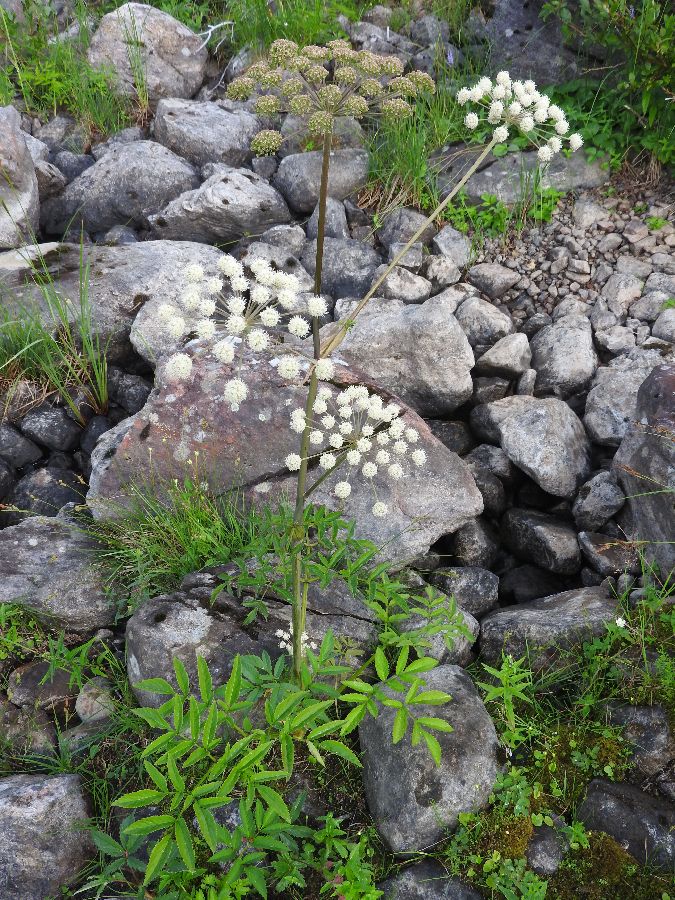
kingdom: Plantae
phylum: Tracheophyta
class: Magnoliopsida
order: Apiales
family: Apiaceae
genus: Angelica
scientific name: Angelica sylvestris
